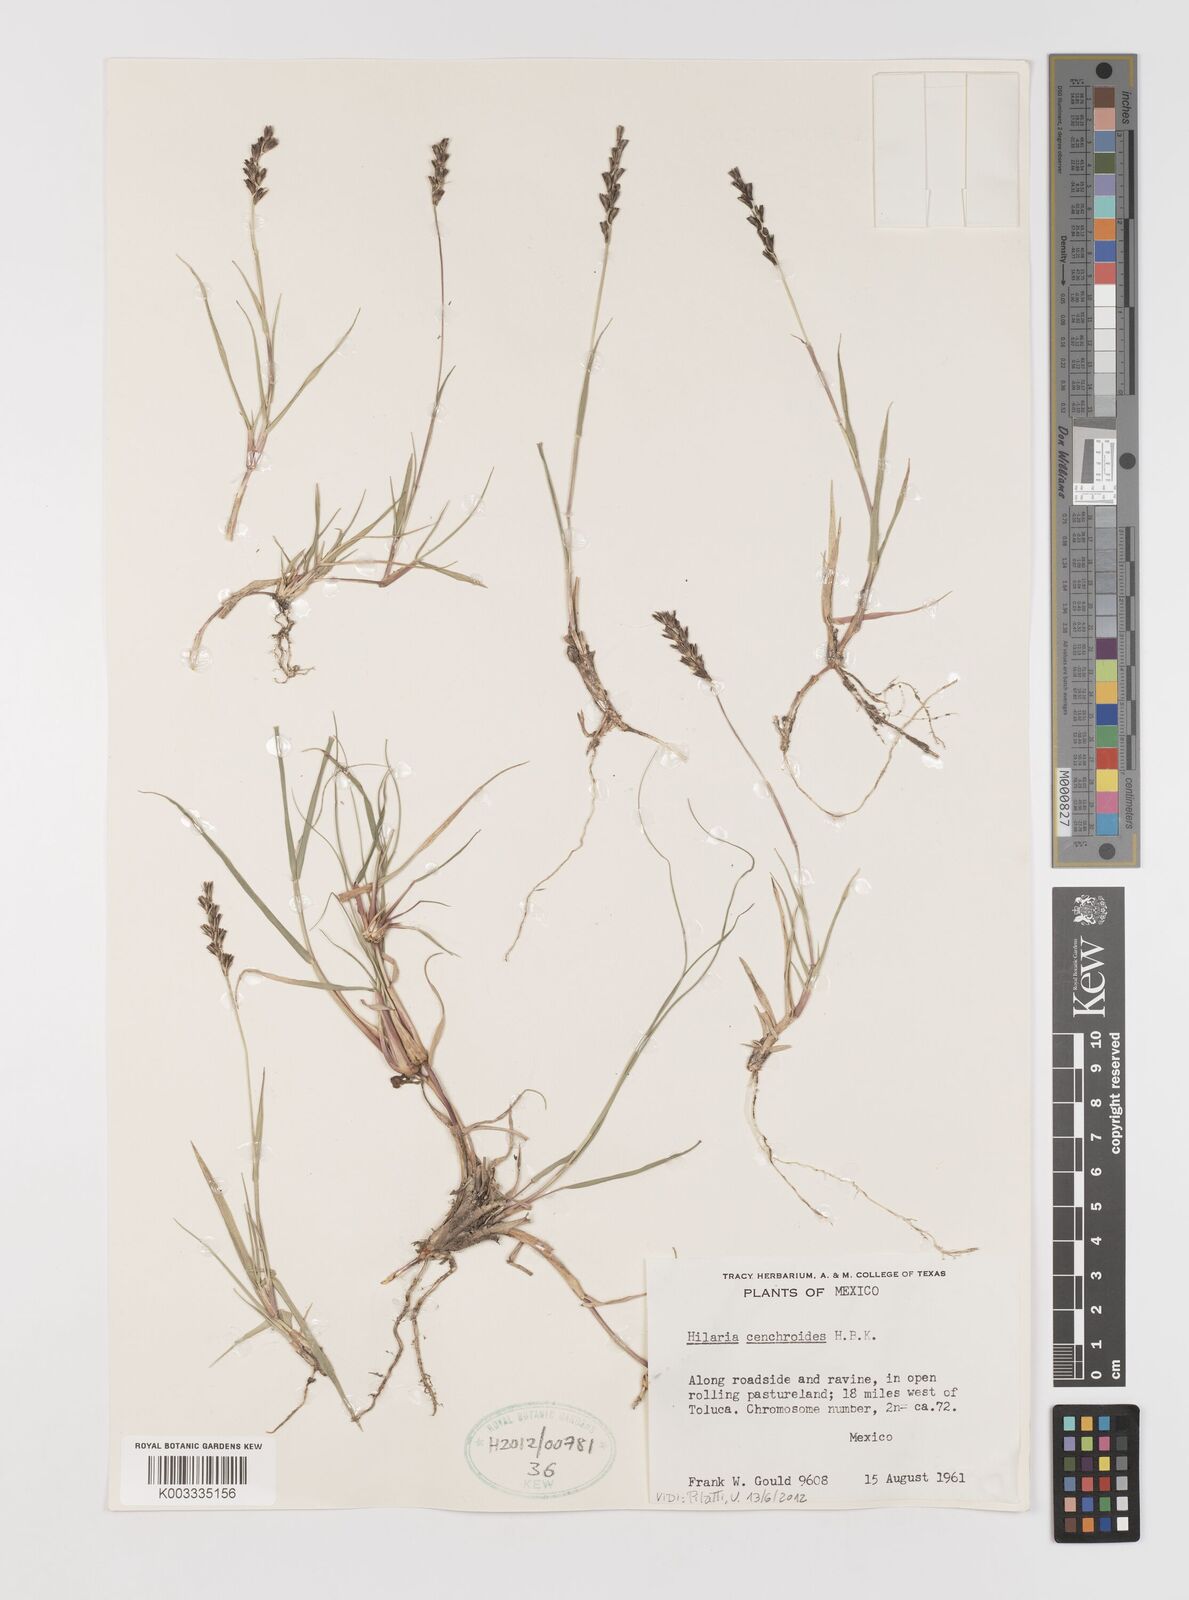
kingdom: Plantae
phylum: Tracheophyta
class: Liliopsida
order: Poales
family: Poaceae
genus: Hilaria
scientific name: Hilaria cenchroides
